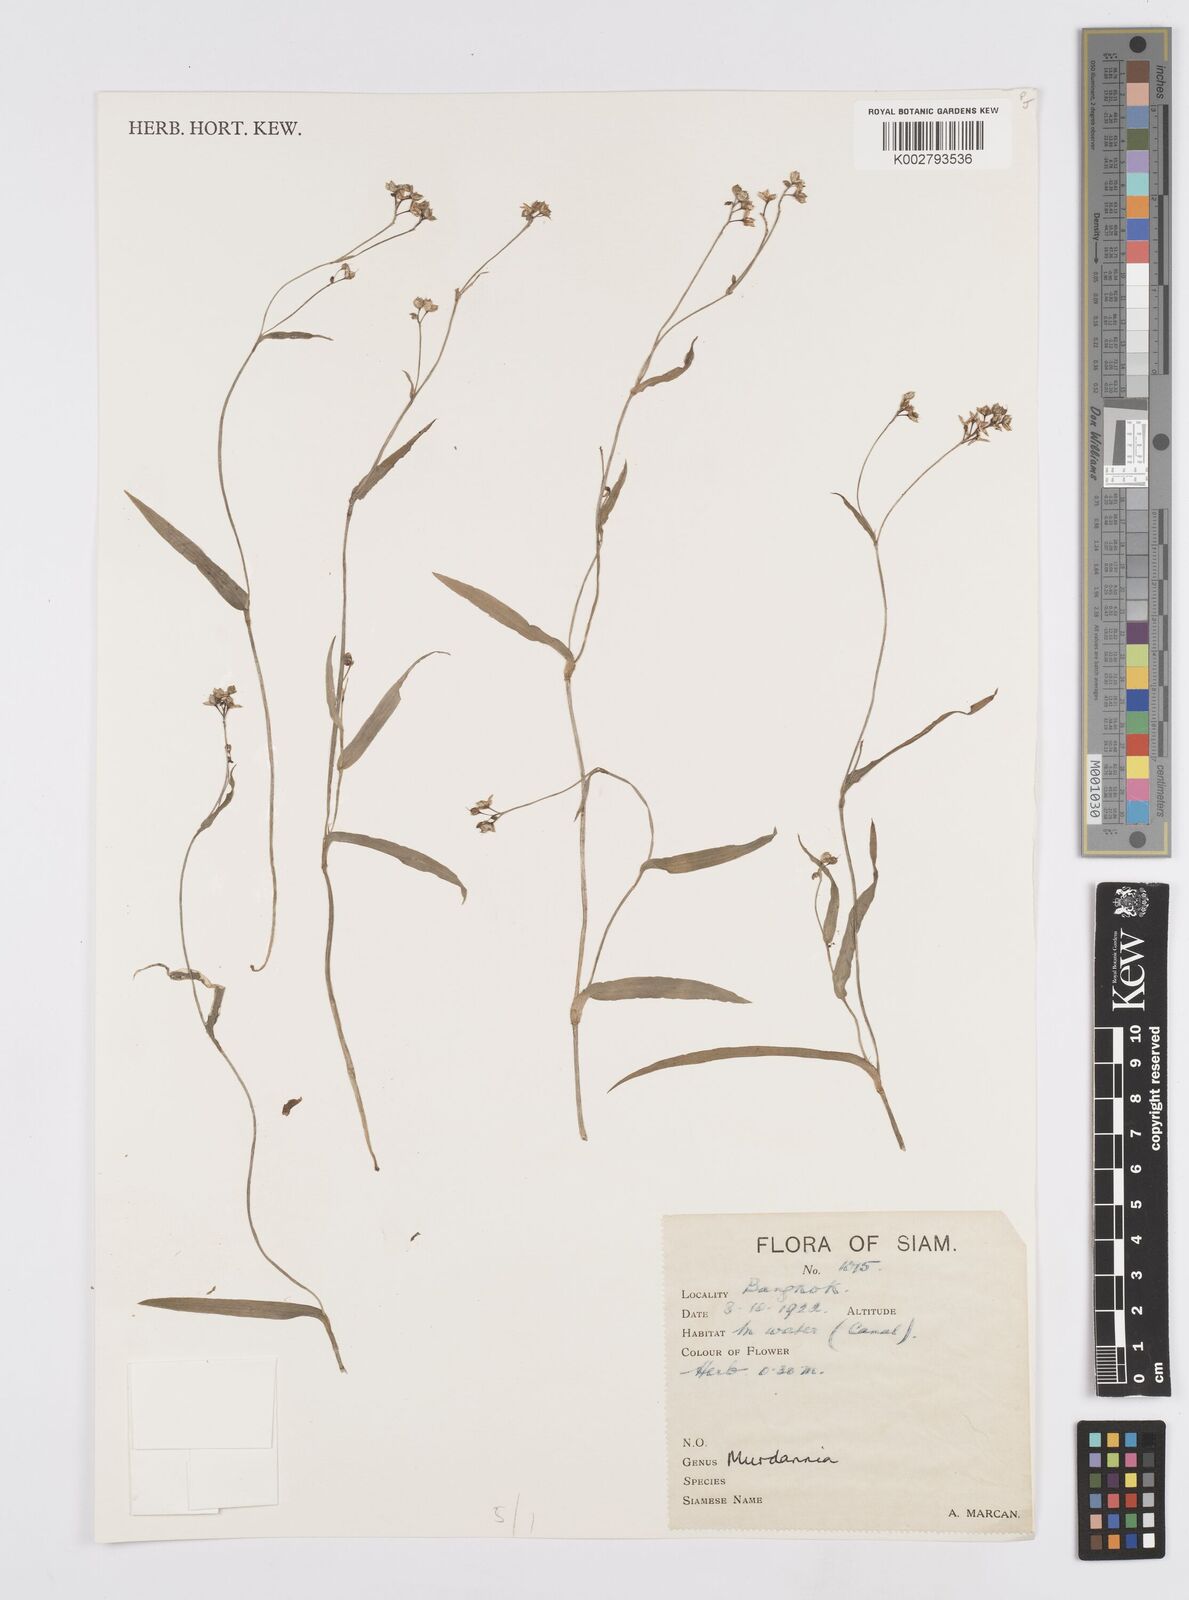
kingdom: Plantae
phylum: Tracheophyta
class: Liliopsida
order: Commelinales
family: Commelinaceae
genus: Murdannia
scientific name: Murdannia
